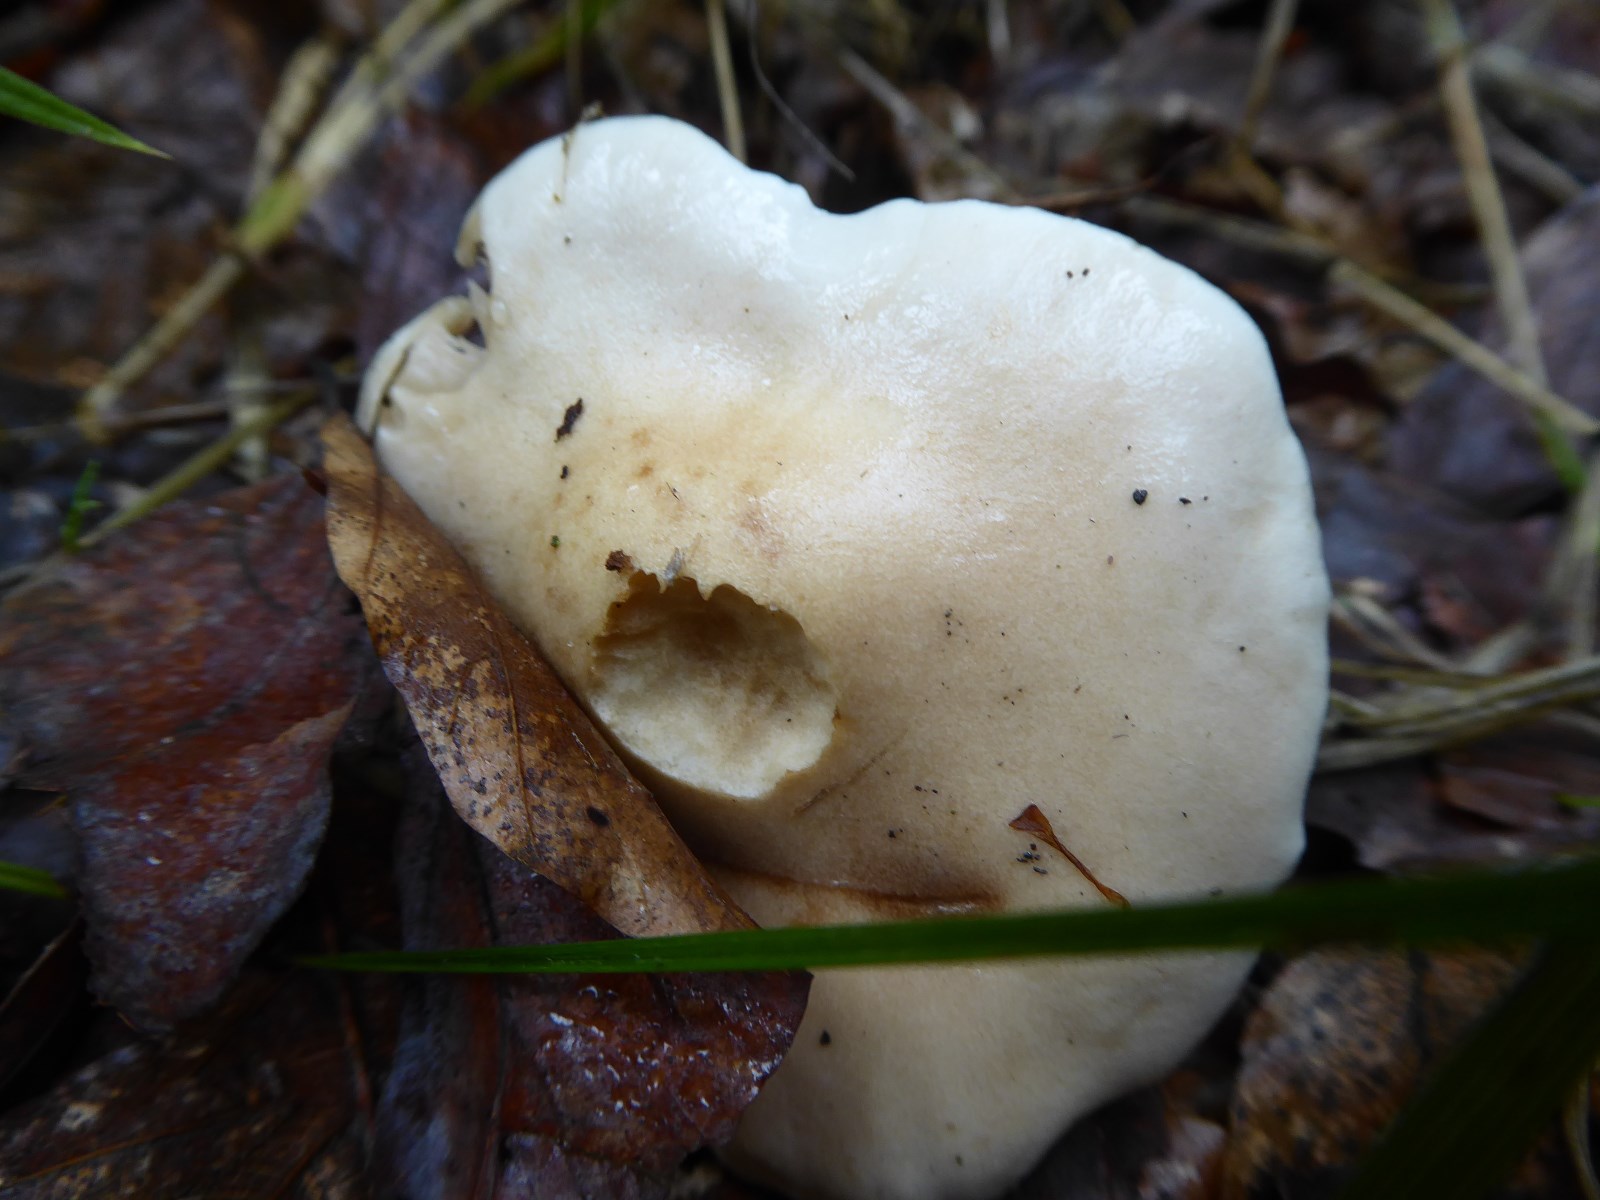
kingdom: Fungi
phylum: Basidiomycota
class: Agaricomycetes
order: Agaricales
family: Hymenogastraceae
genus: Hebeloma
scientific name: Hebeloma
